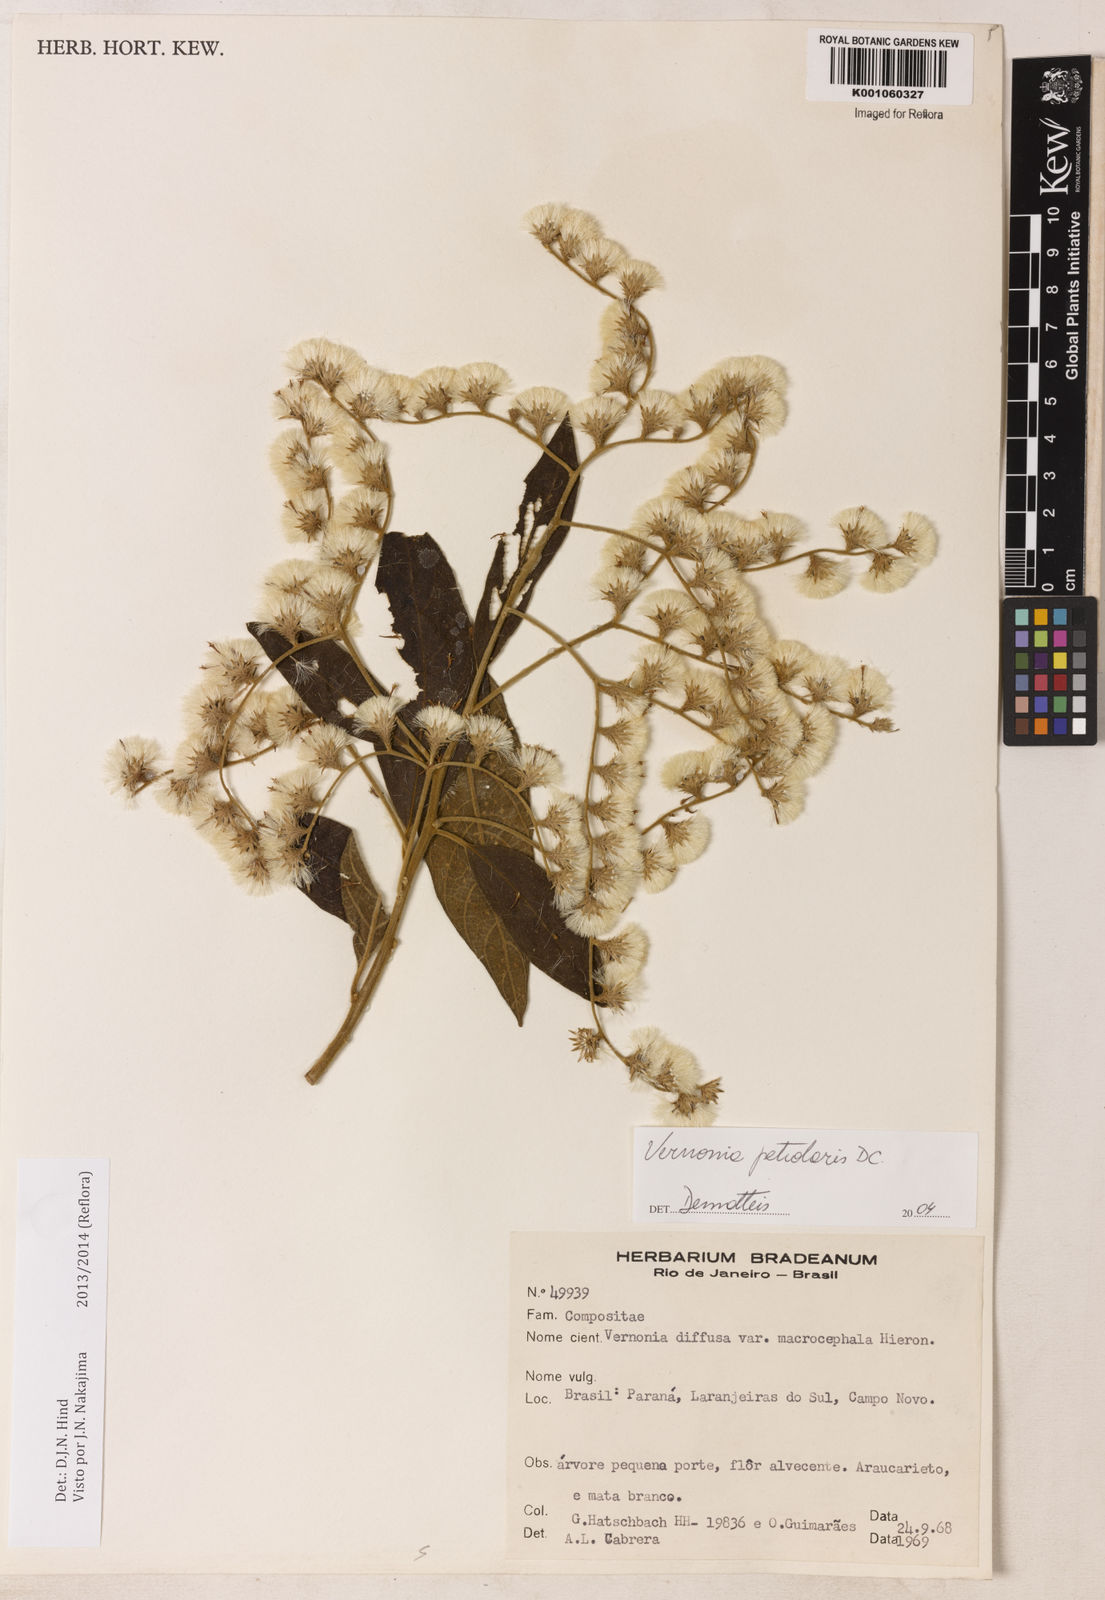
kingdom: Plantae
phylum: Tracheophyta
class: Magnoliopsida
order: Asterales
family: Asteraceae
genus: Vernonanthura
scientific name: Vernonanthura petiolaris
